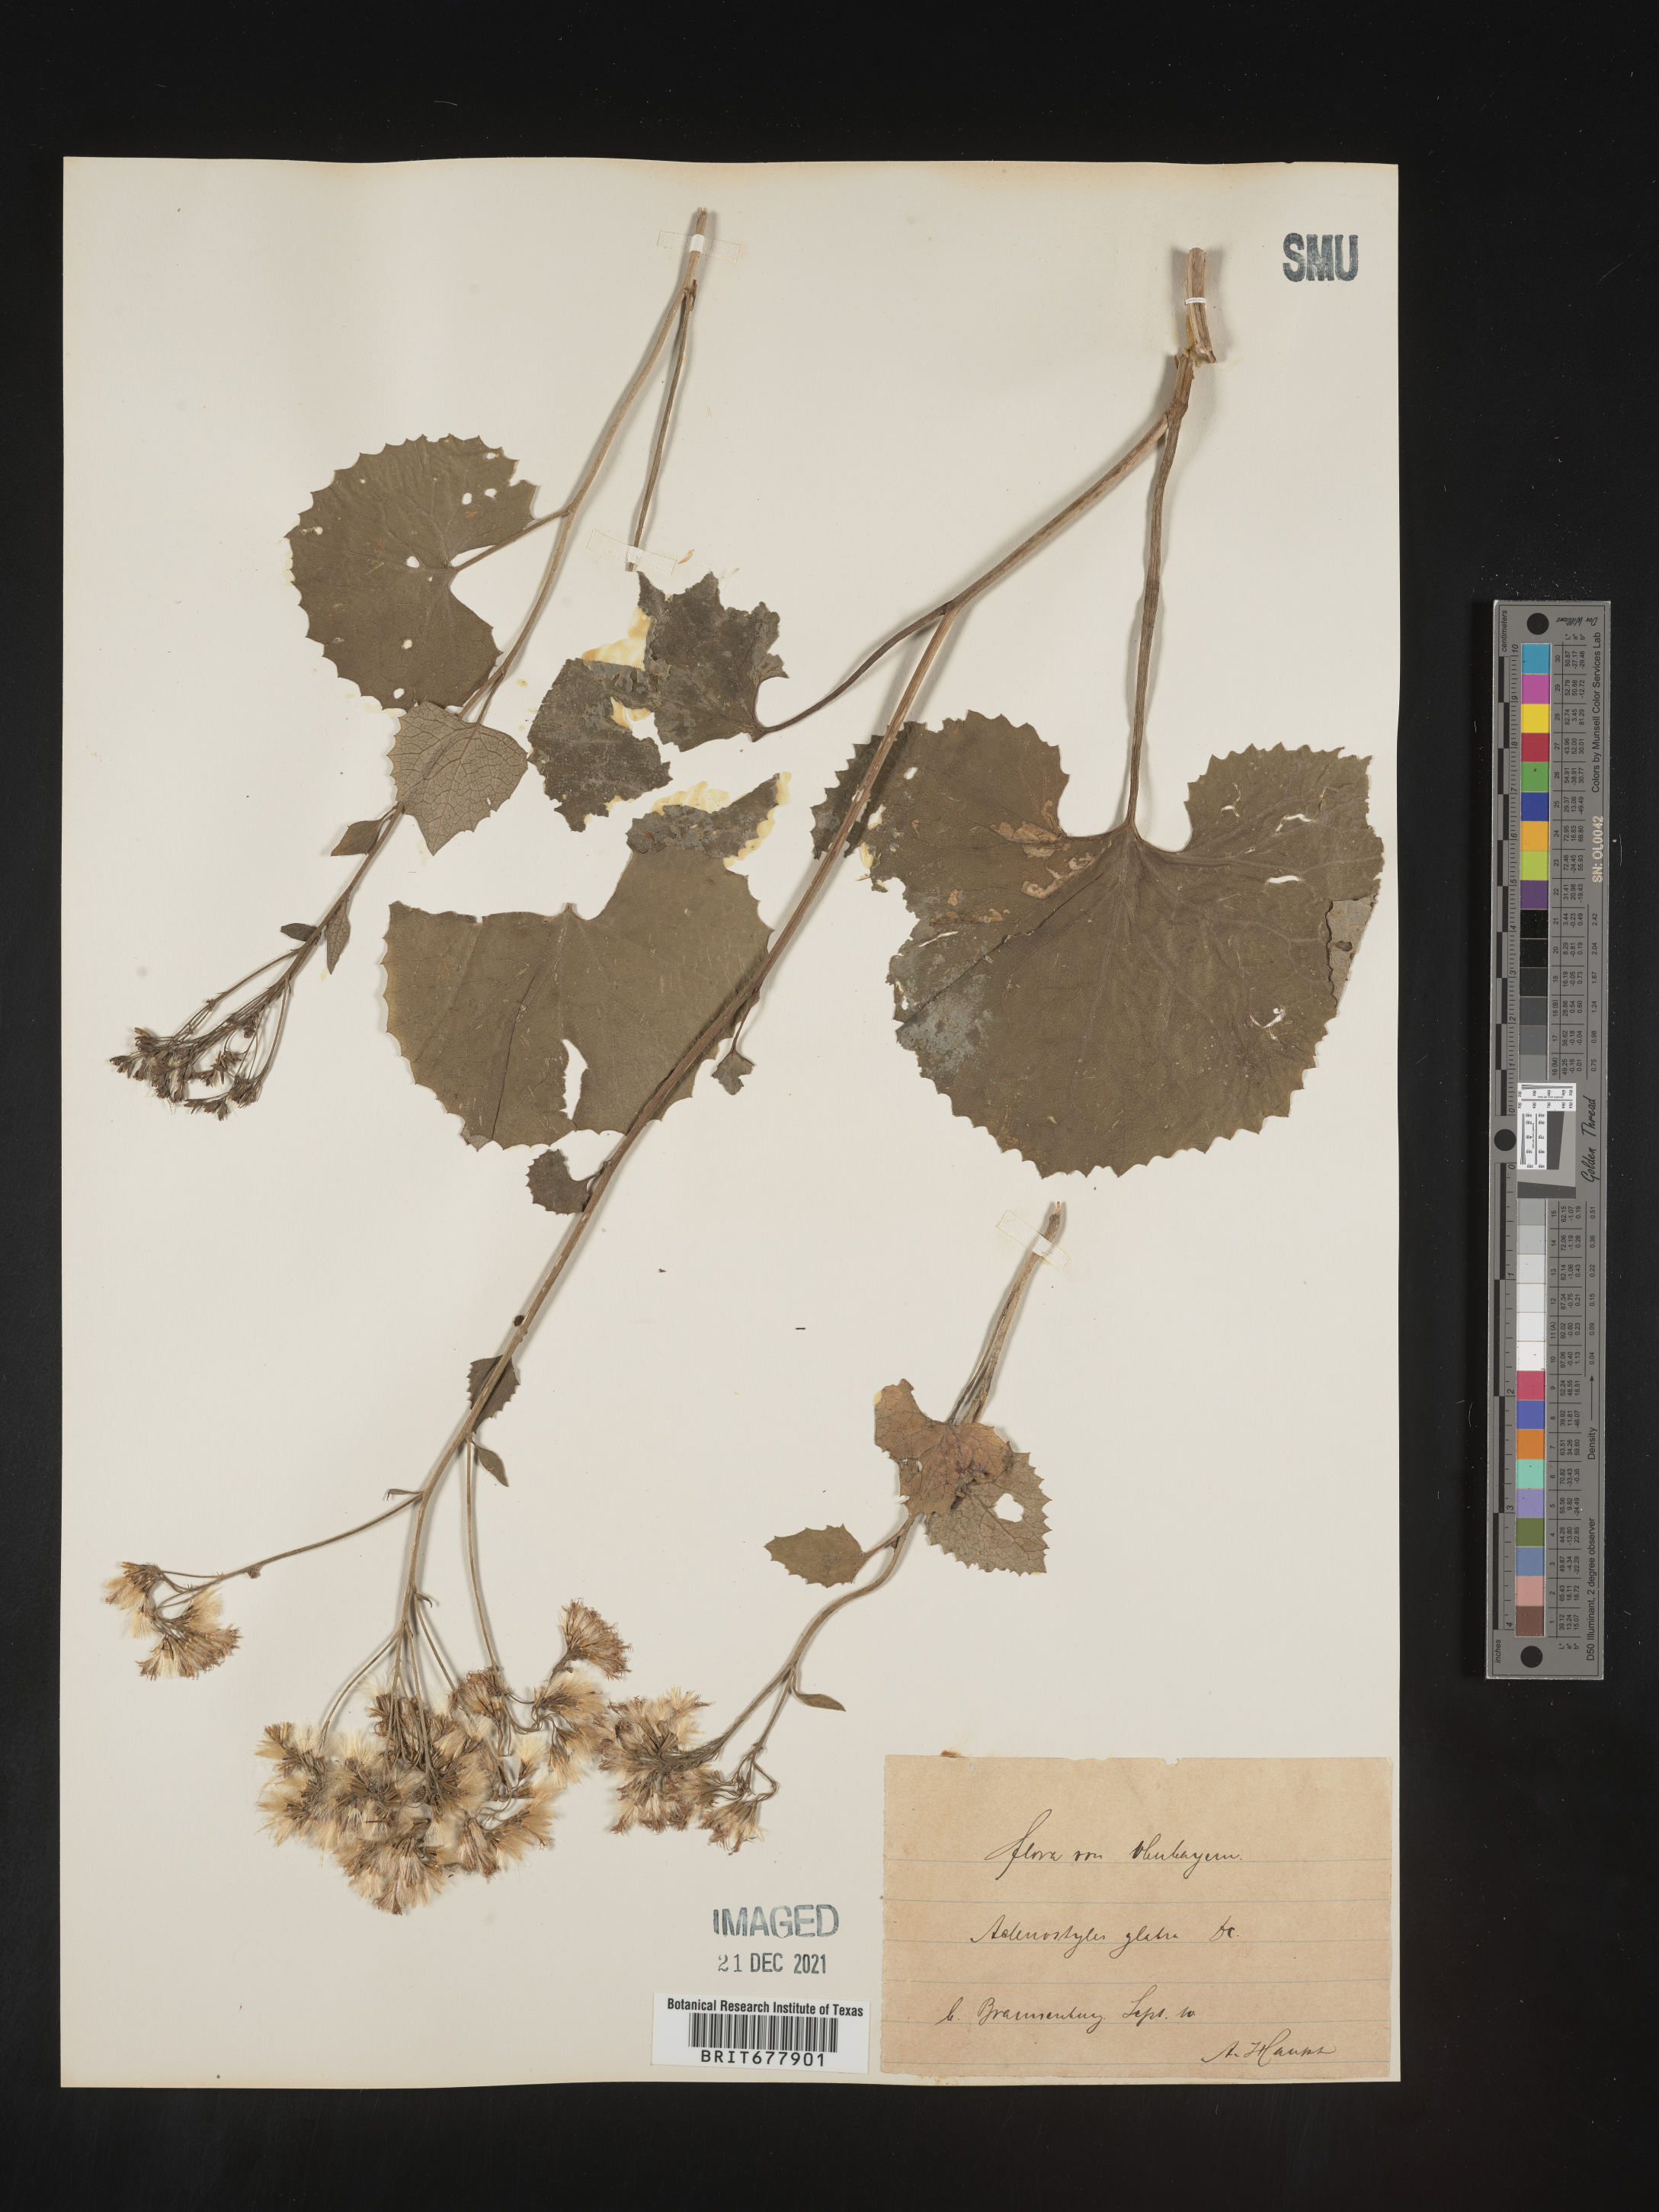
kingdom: Plantae
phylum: Tracheophyta
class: Magnoliopsida
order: Asterales
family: Asteraceae
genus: Adenostyles
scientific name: Adenostyles
